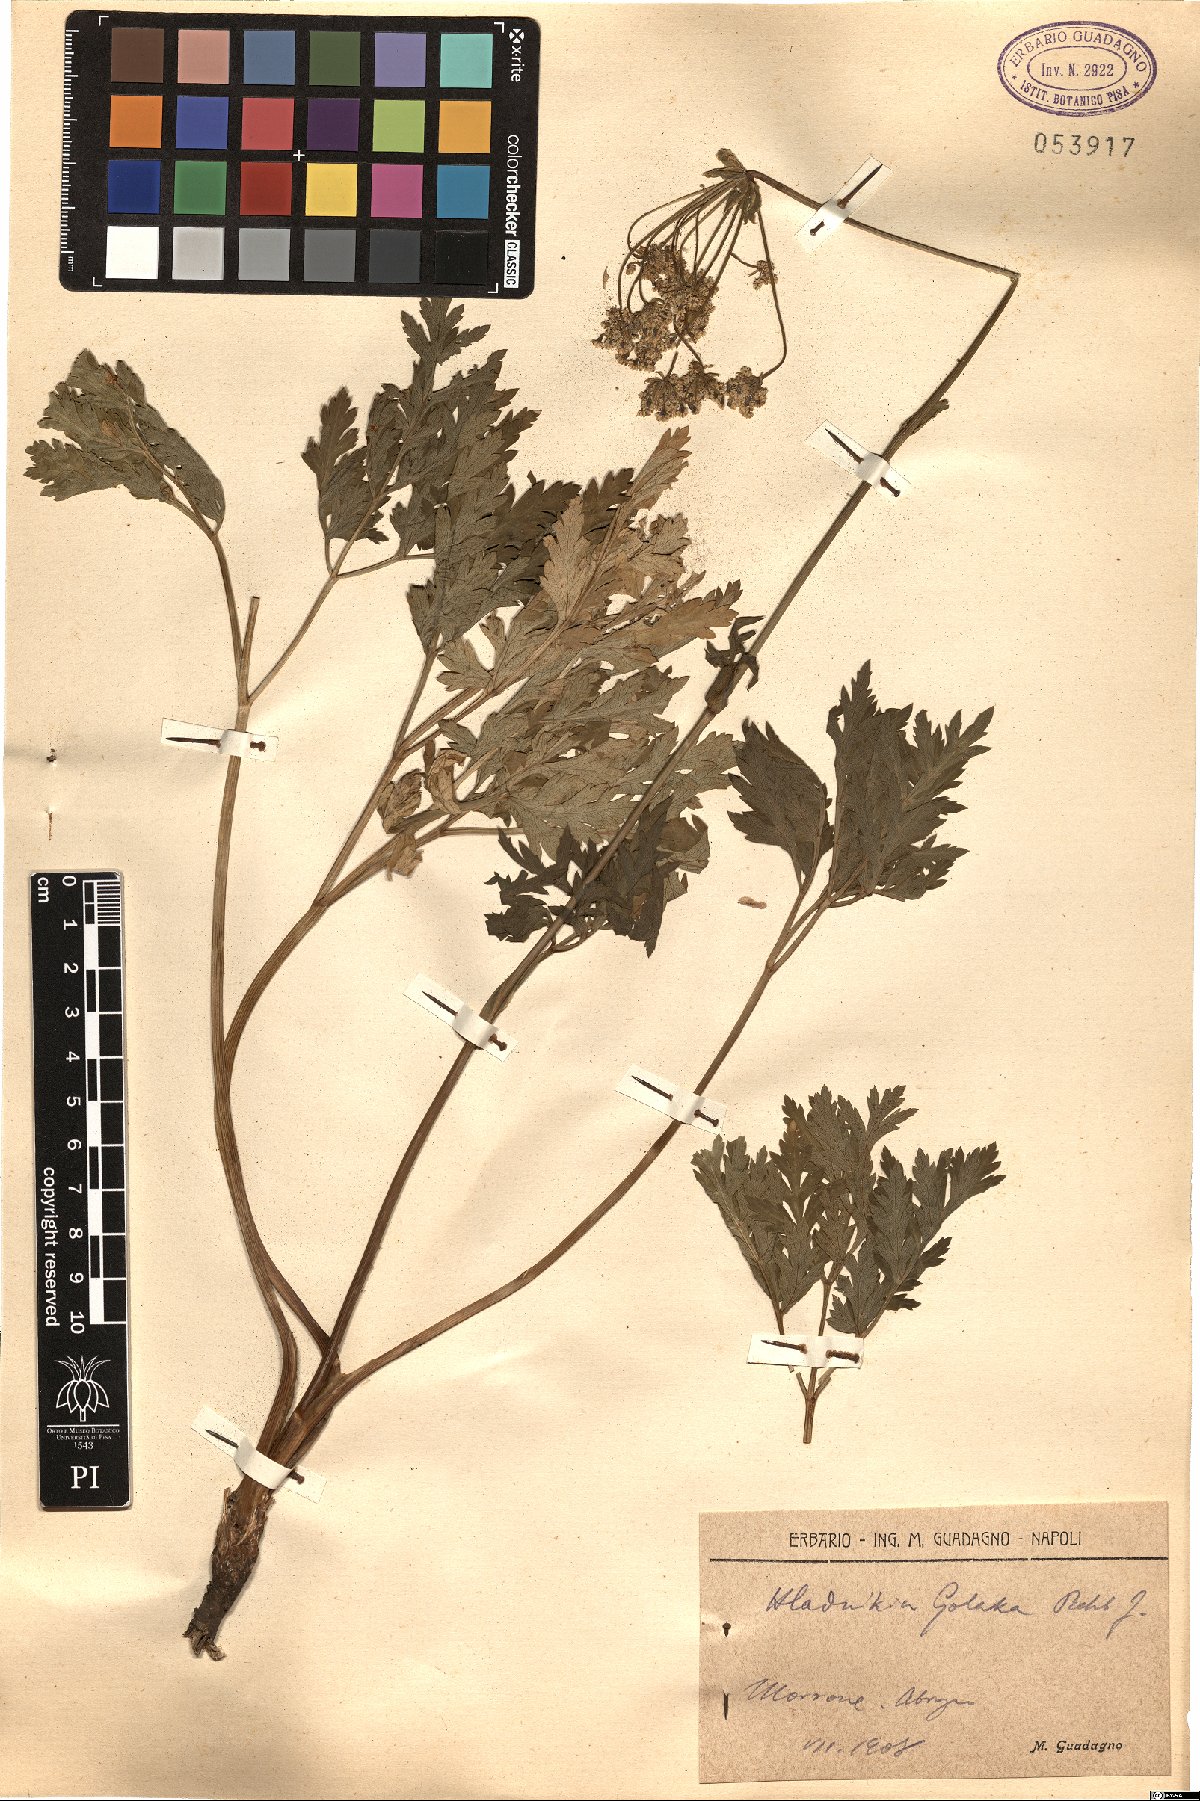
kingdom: Plantae
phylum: Tracheophyta
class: Magnoliopsida
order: Apiales
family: Apiaceae
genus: Grafia
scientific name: Grafia golaka
